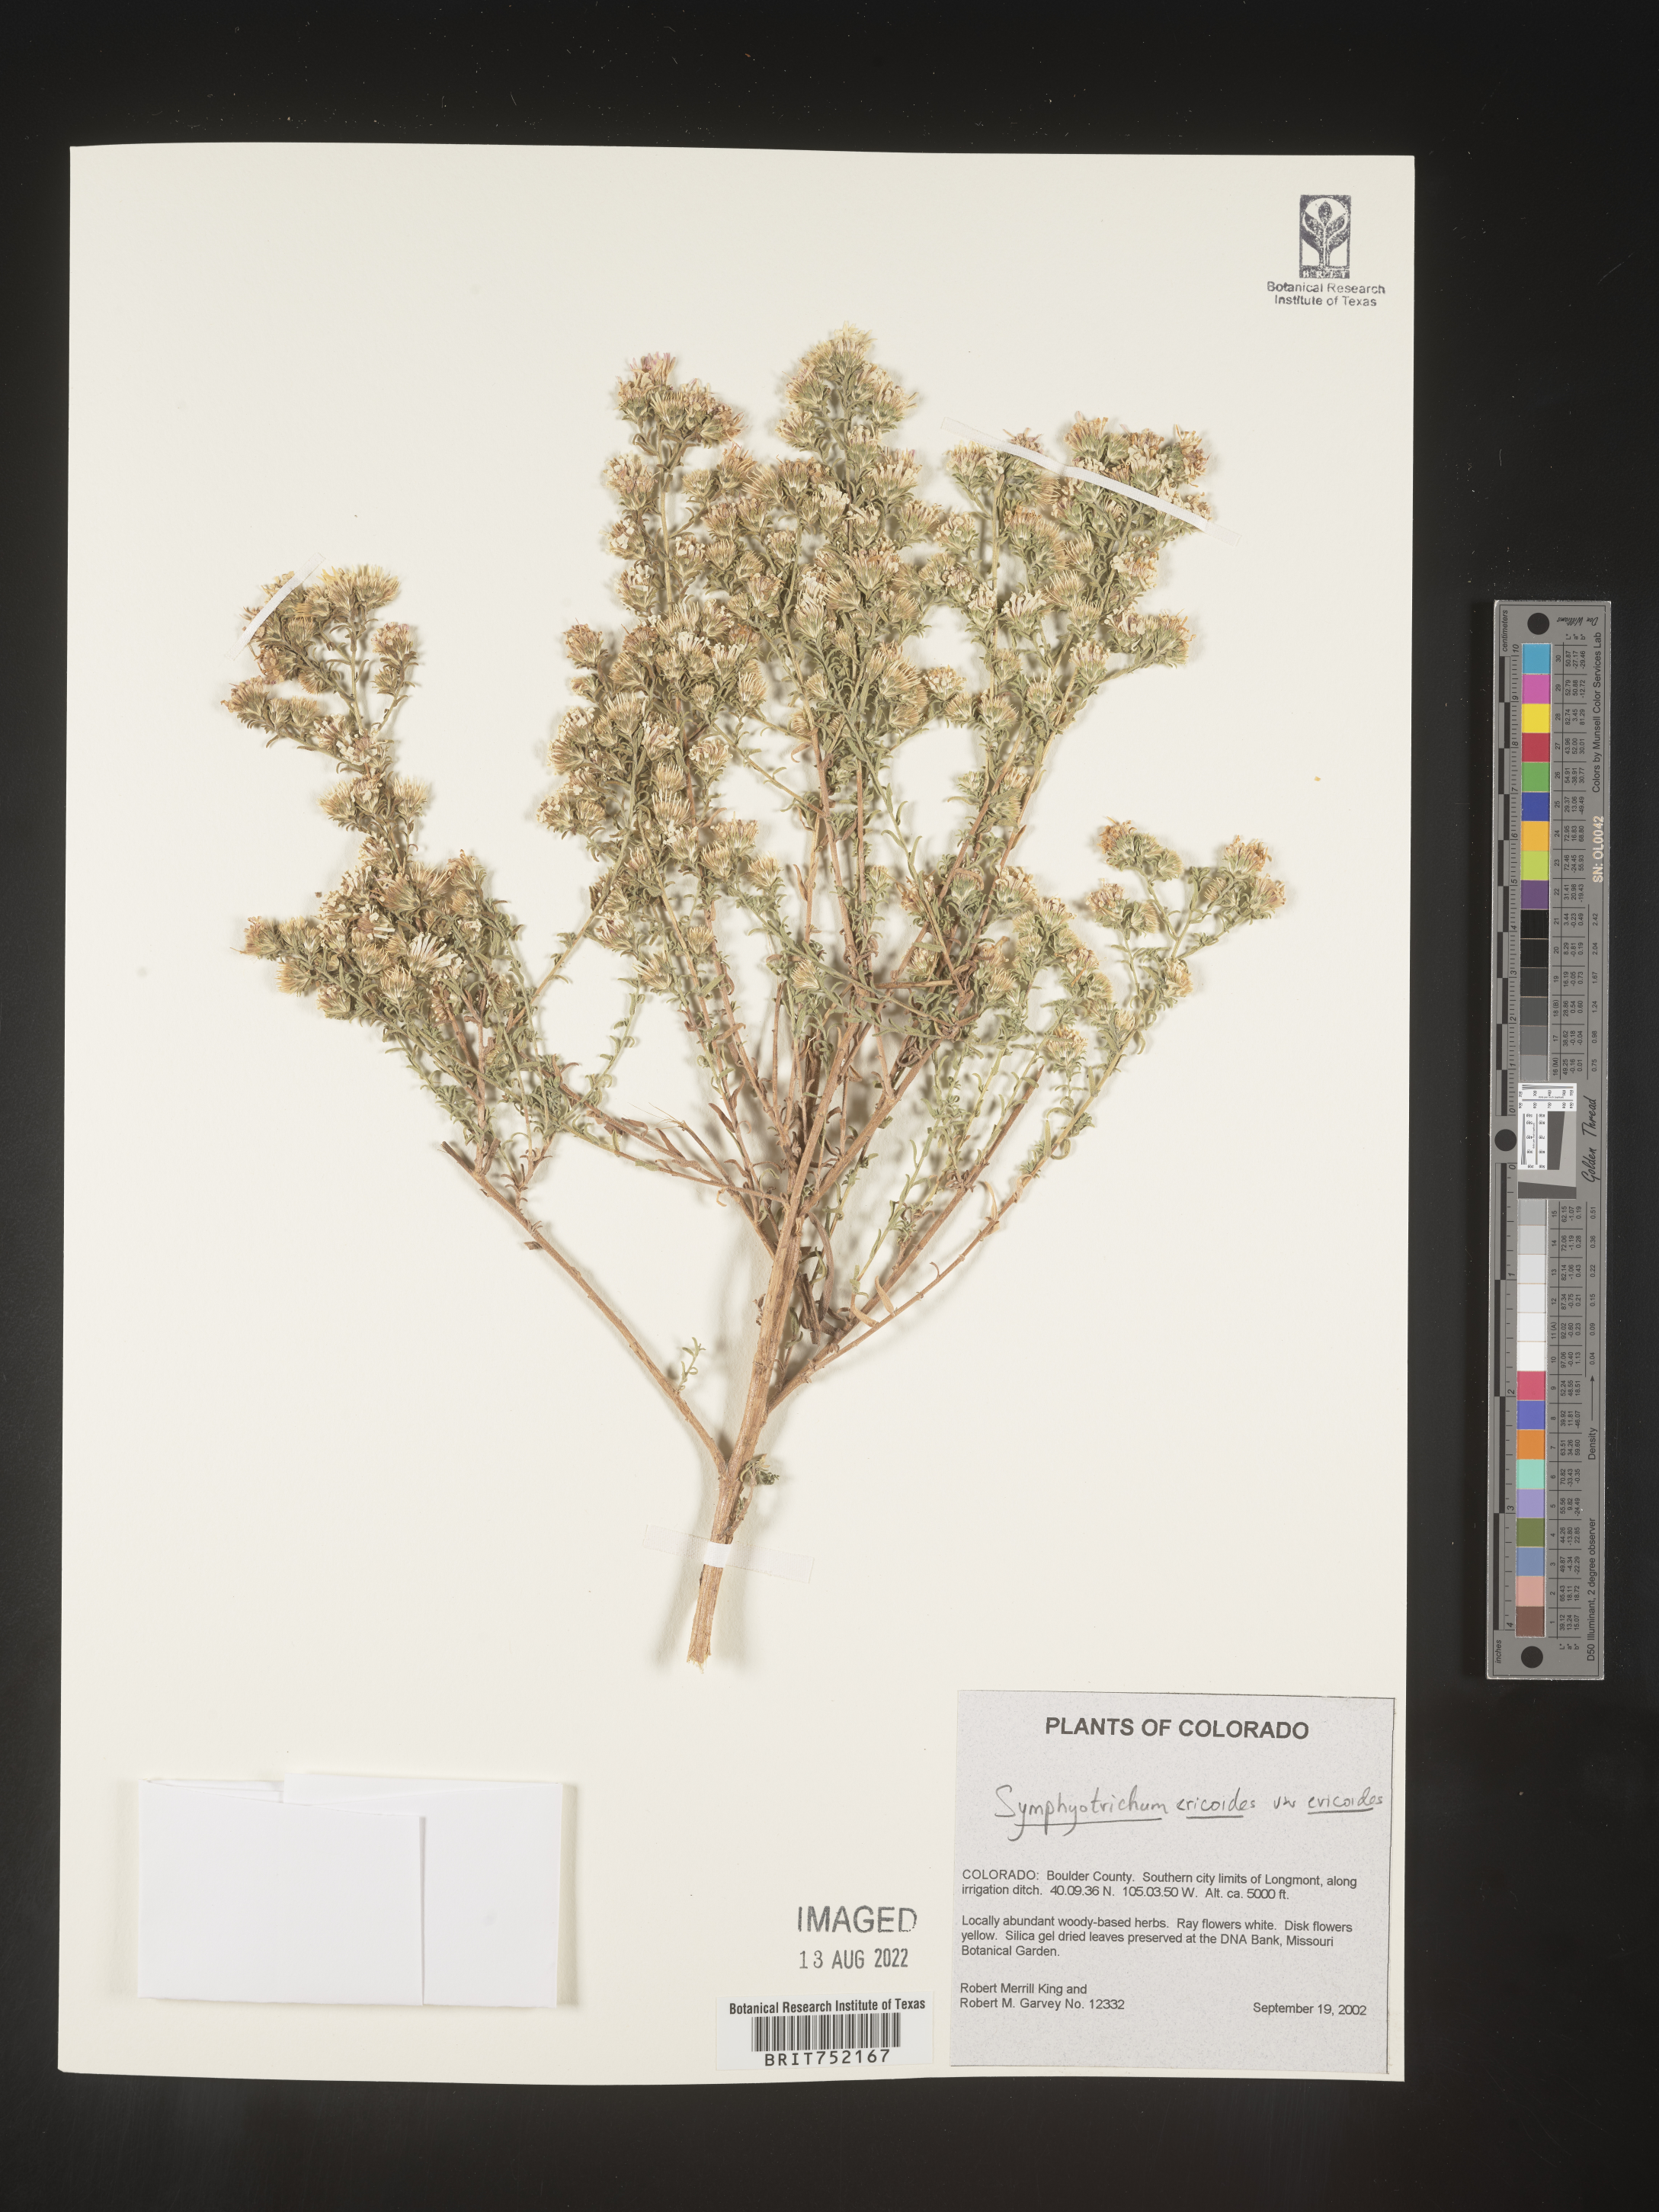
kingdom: Plantae
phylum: Tracheophyta
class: Magnoliopsida
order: Asterales
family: Asteraceae
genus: Symphyotrichum
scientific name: Symphyotrichum ericoides
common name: Heath aster
